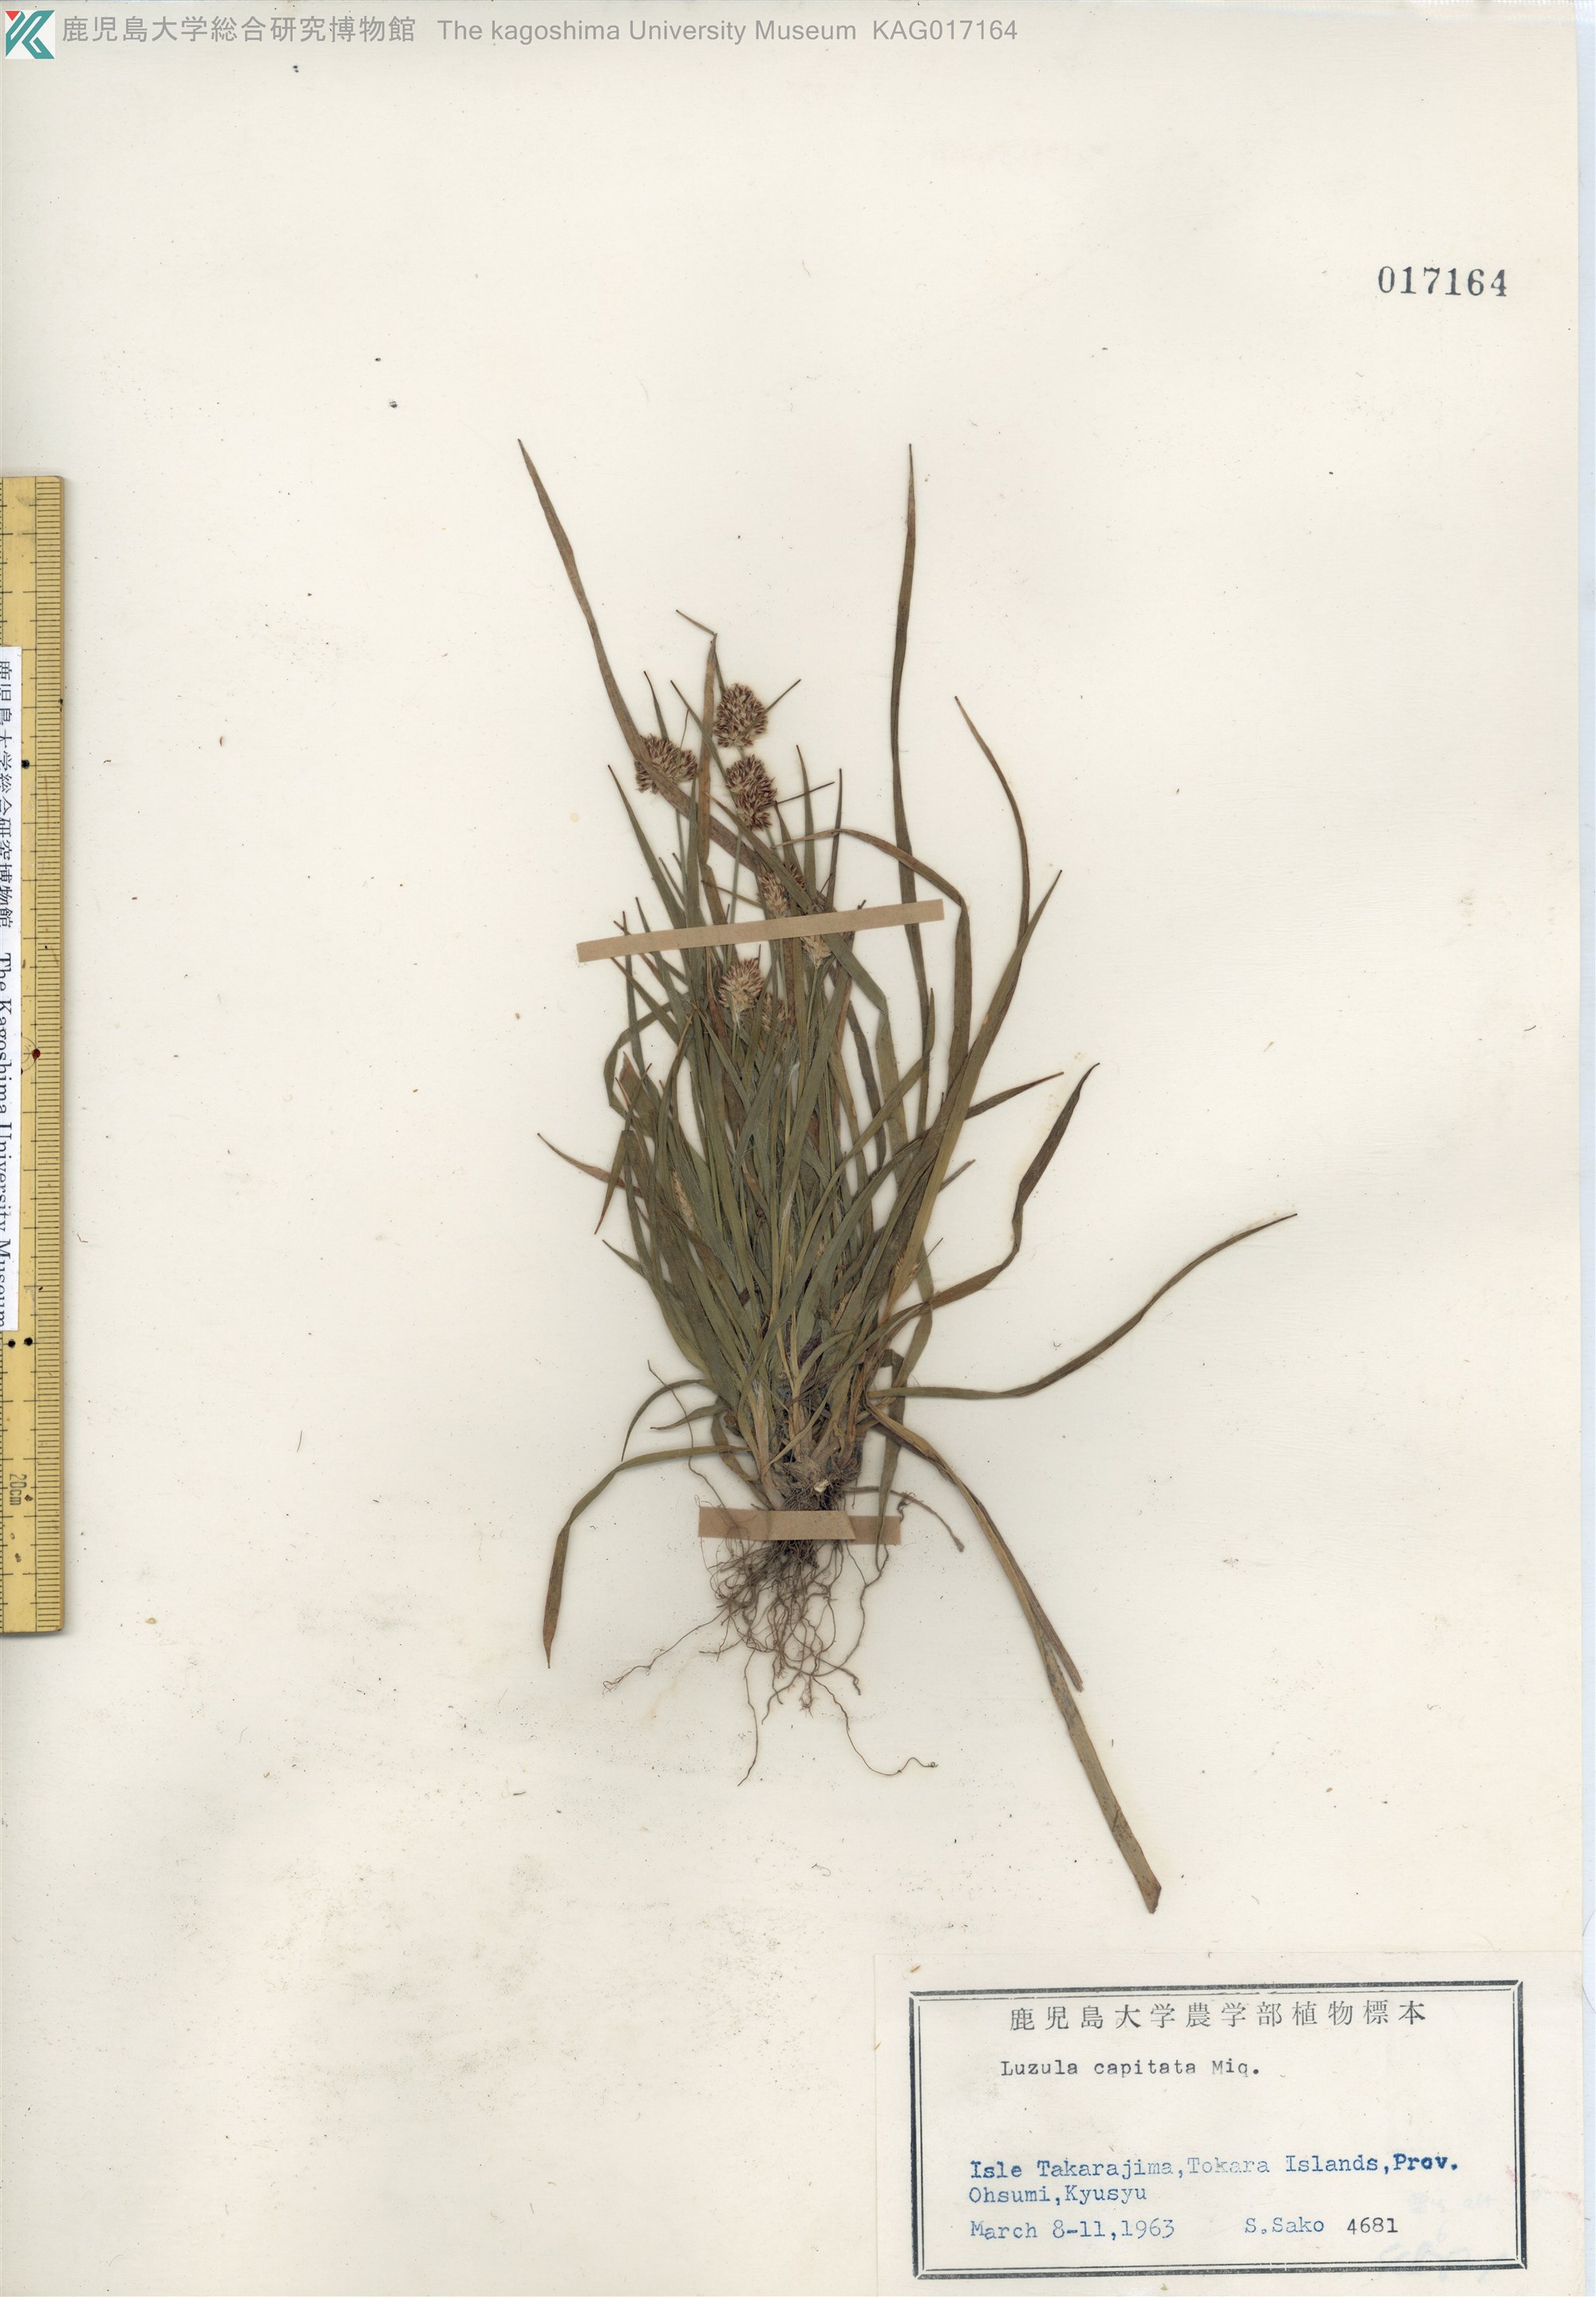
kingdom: Plantae
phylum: Tracheophyta
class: Liliopsida
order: Poales
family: Juncaceae
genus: Luzula
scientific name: Luzula capitata
